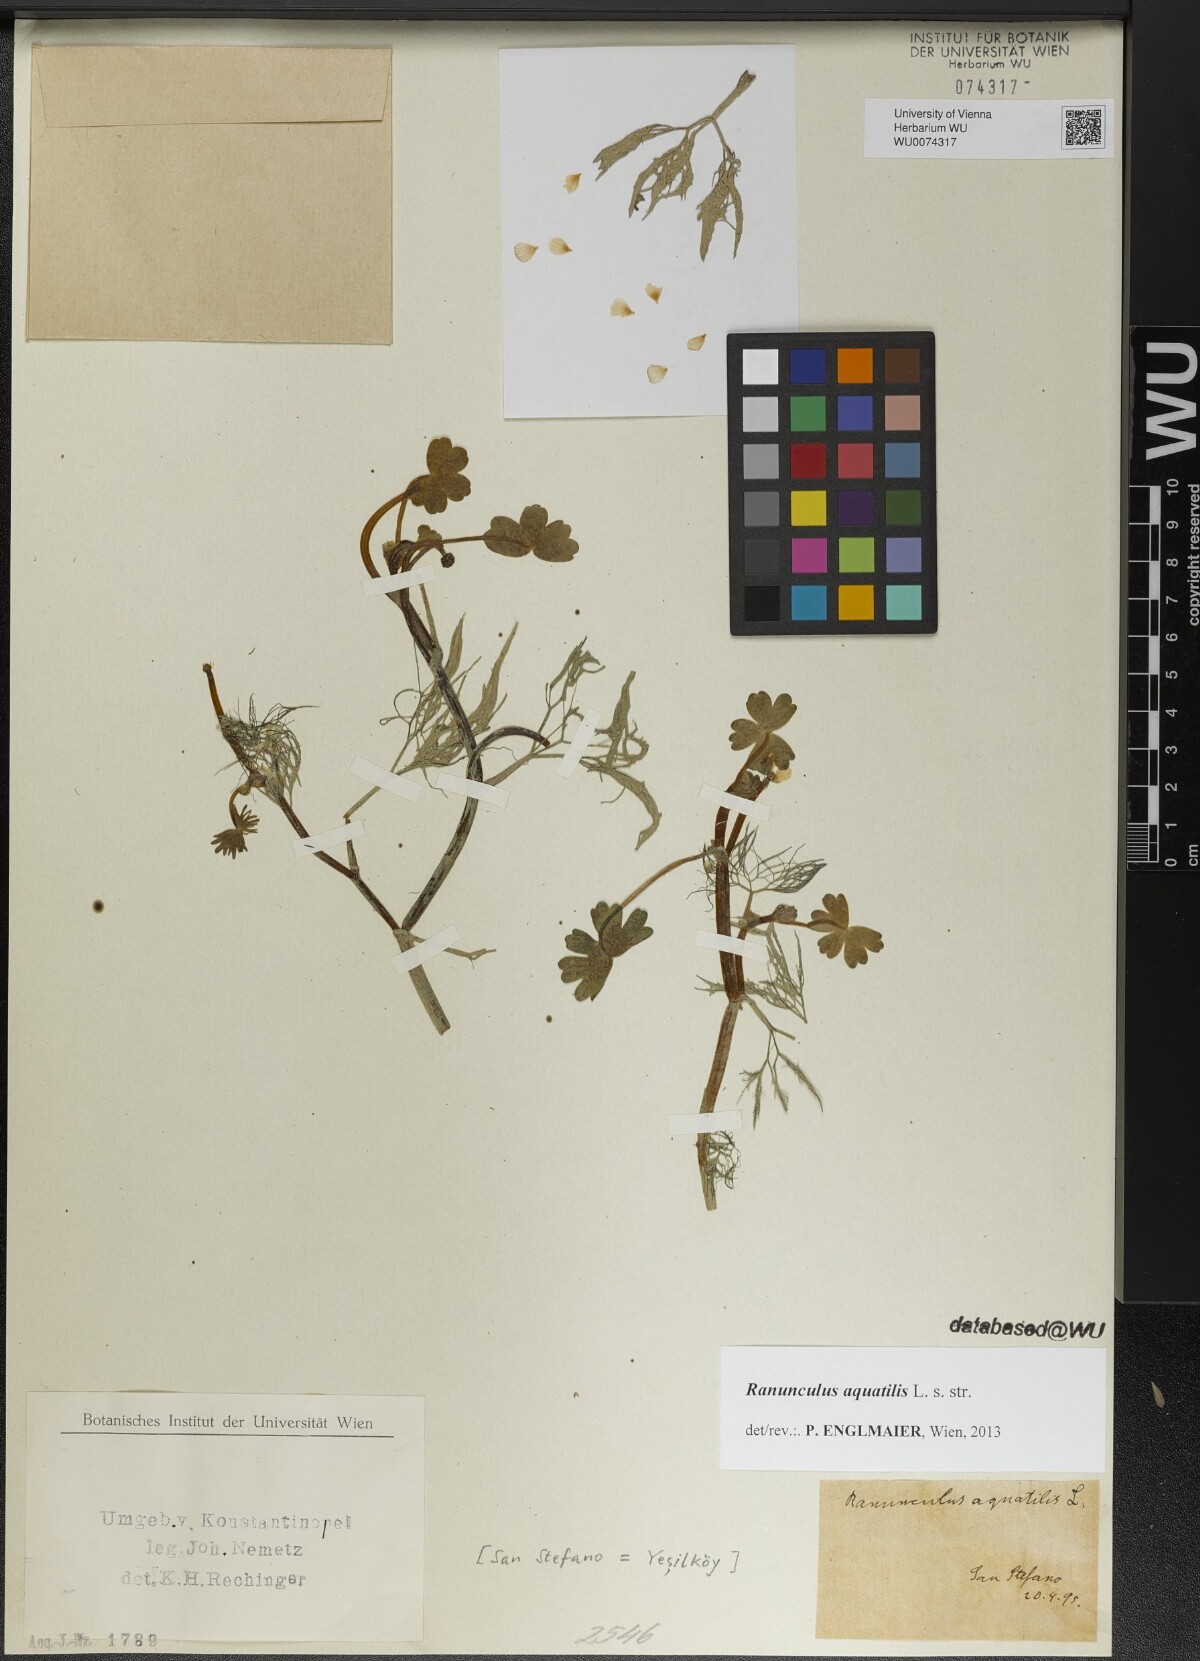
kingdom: Plantae
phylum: Tracheophyta
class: Magnoliopsida
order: Ranunculales
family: Ranunculaceae
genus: Ranunculus
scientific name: Ranunculus aquatilis
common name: Common water-crowfoot
